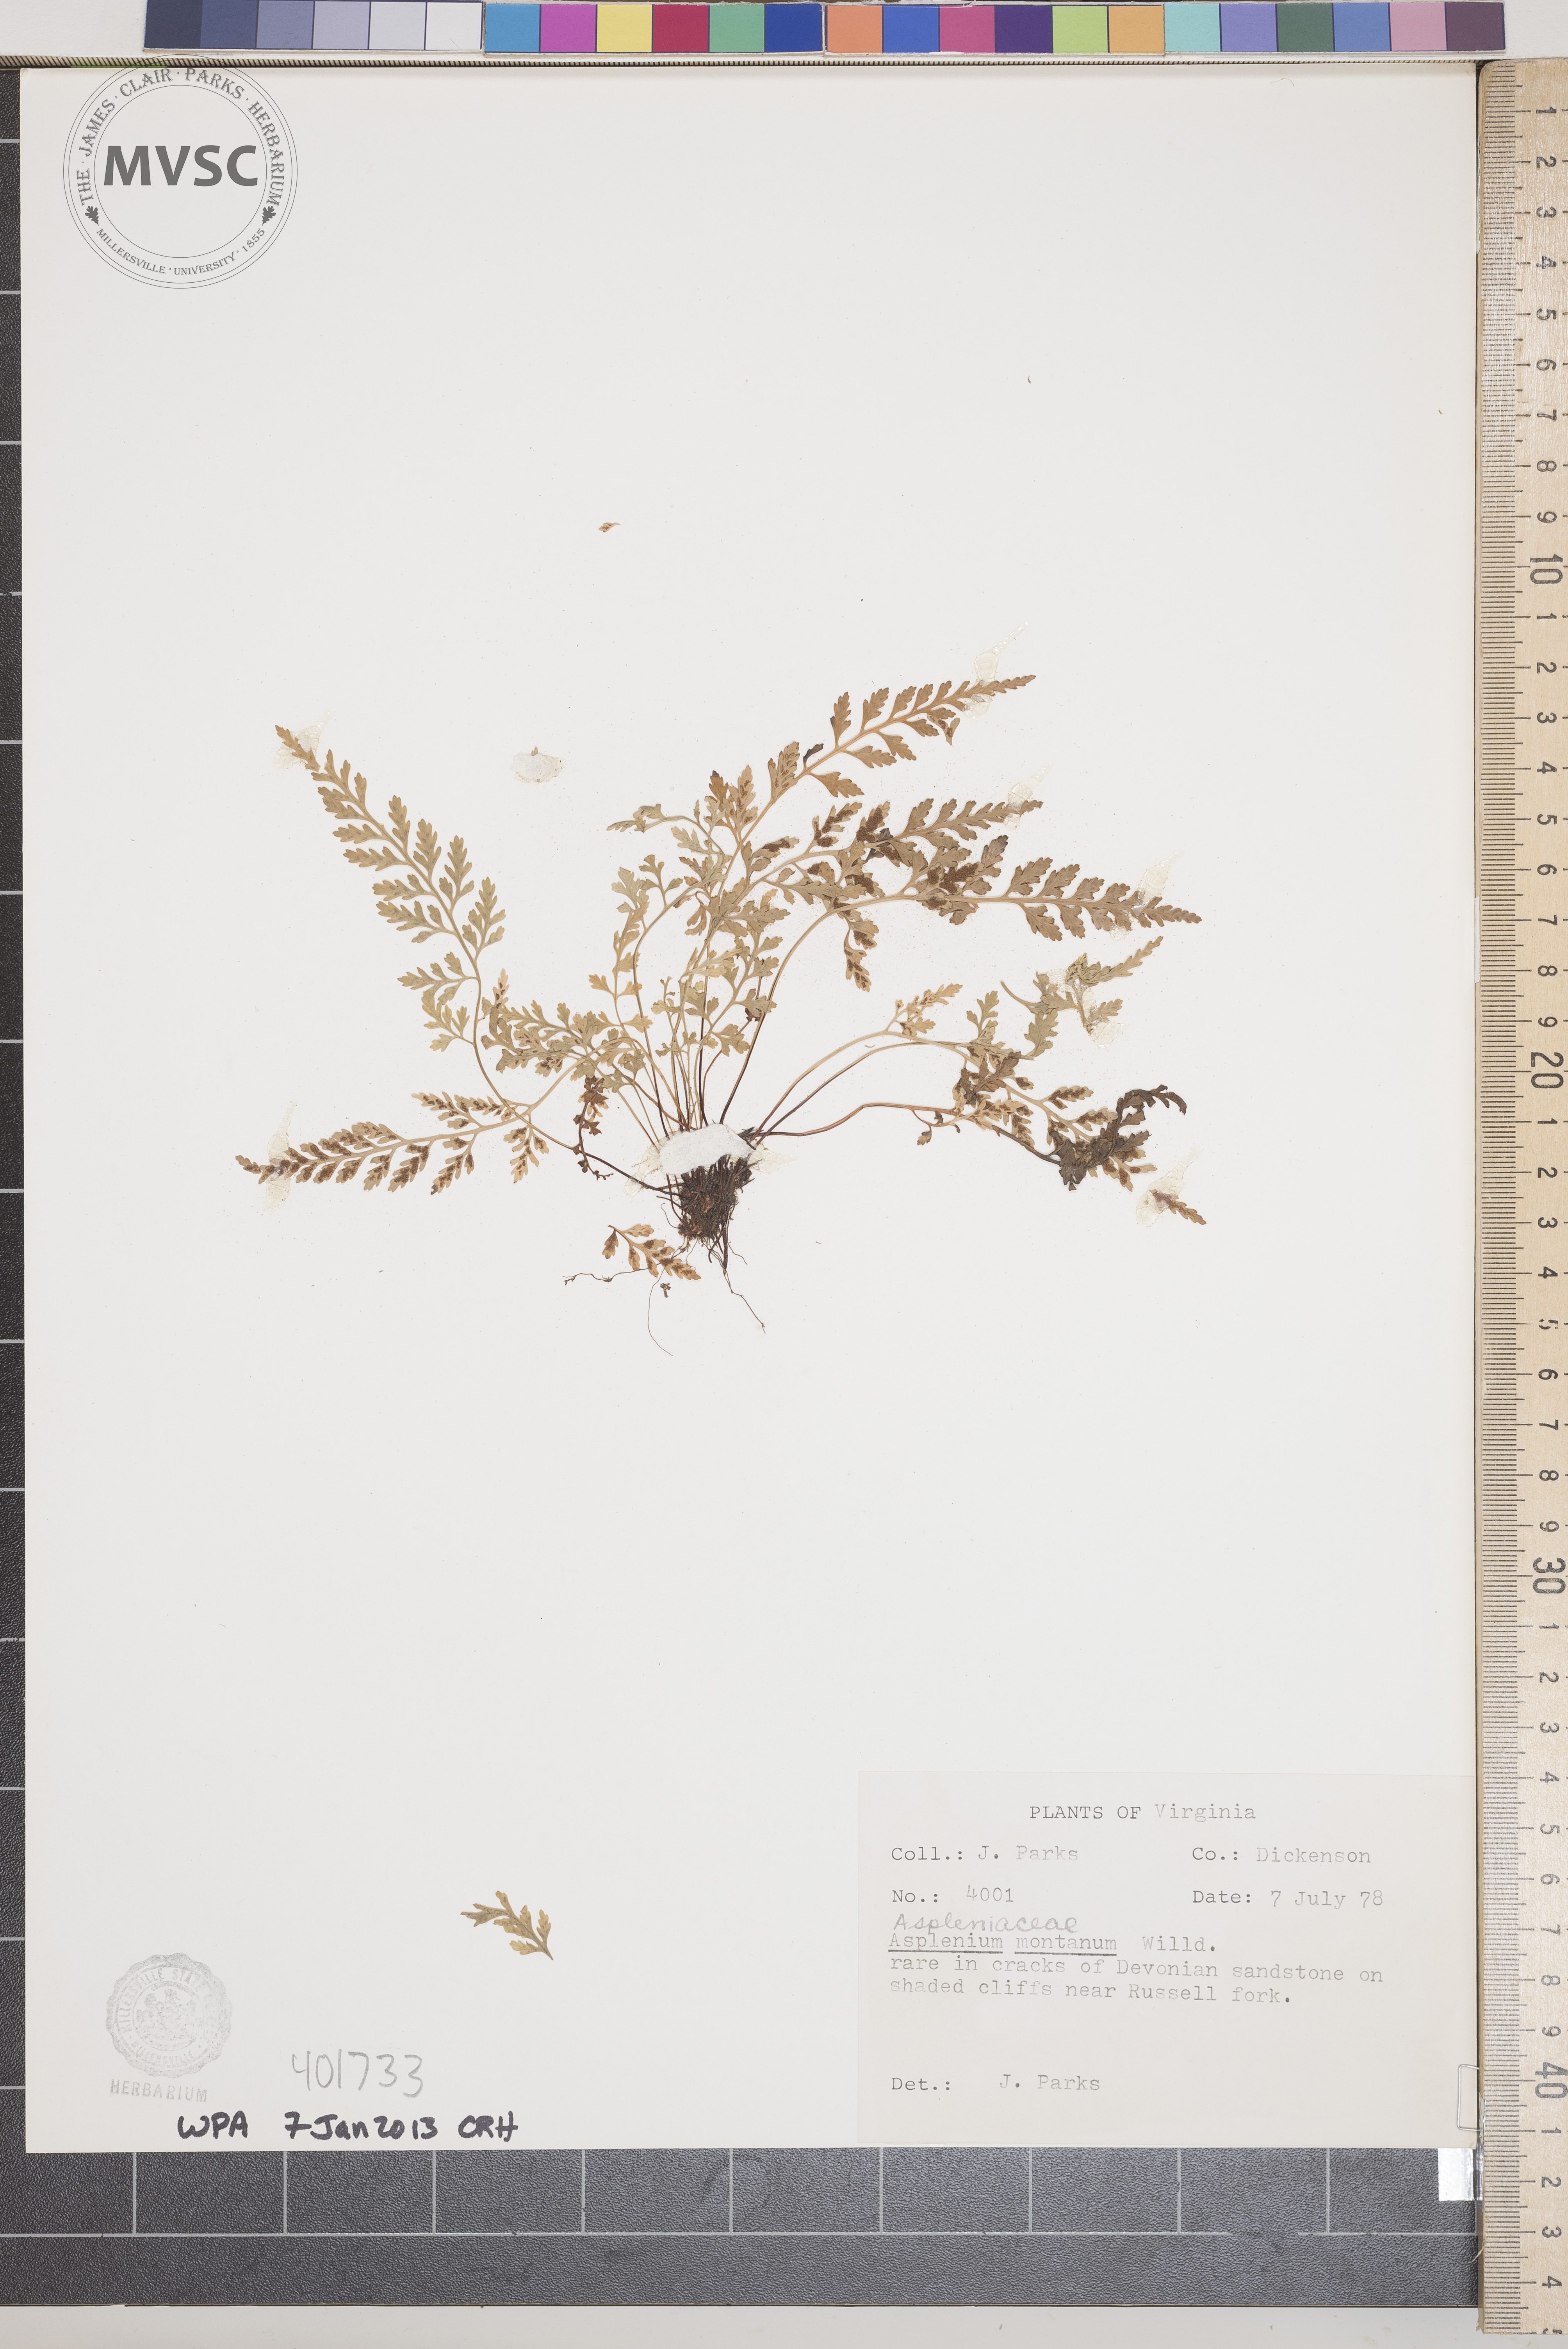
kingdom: Plantae
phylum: Tracheophyta
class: Polypodiopsida
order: Polypodiales
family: Aspleniaceae
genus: Asplenium
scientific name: Asplenium montanum
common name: Mountain spleenwort
